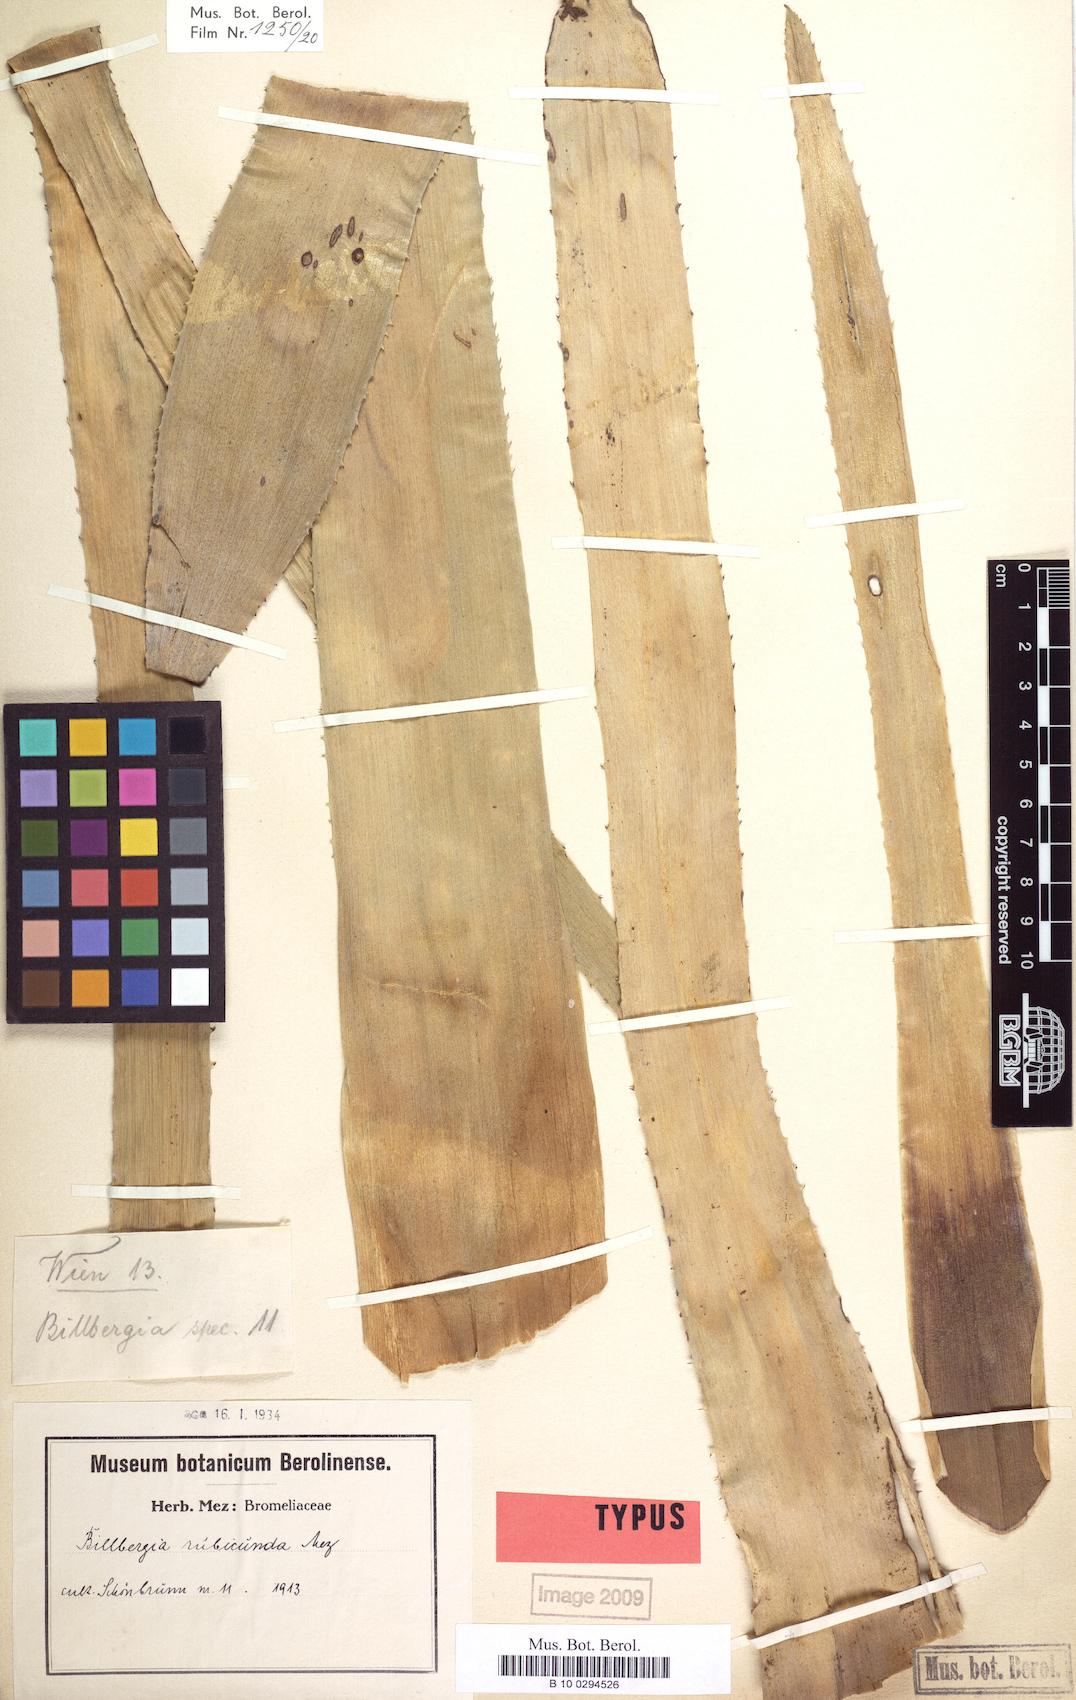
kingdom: Plantae
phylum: Tracheophyta
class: Liliopsida
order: Poales
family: Bromeliaceae
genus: Billbergia
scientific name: Billbergia rubicunda
